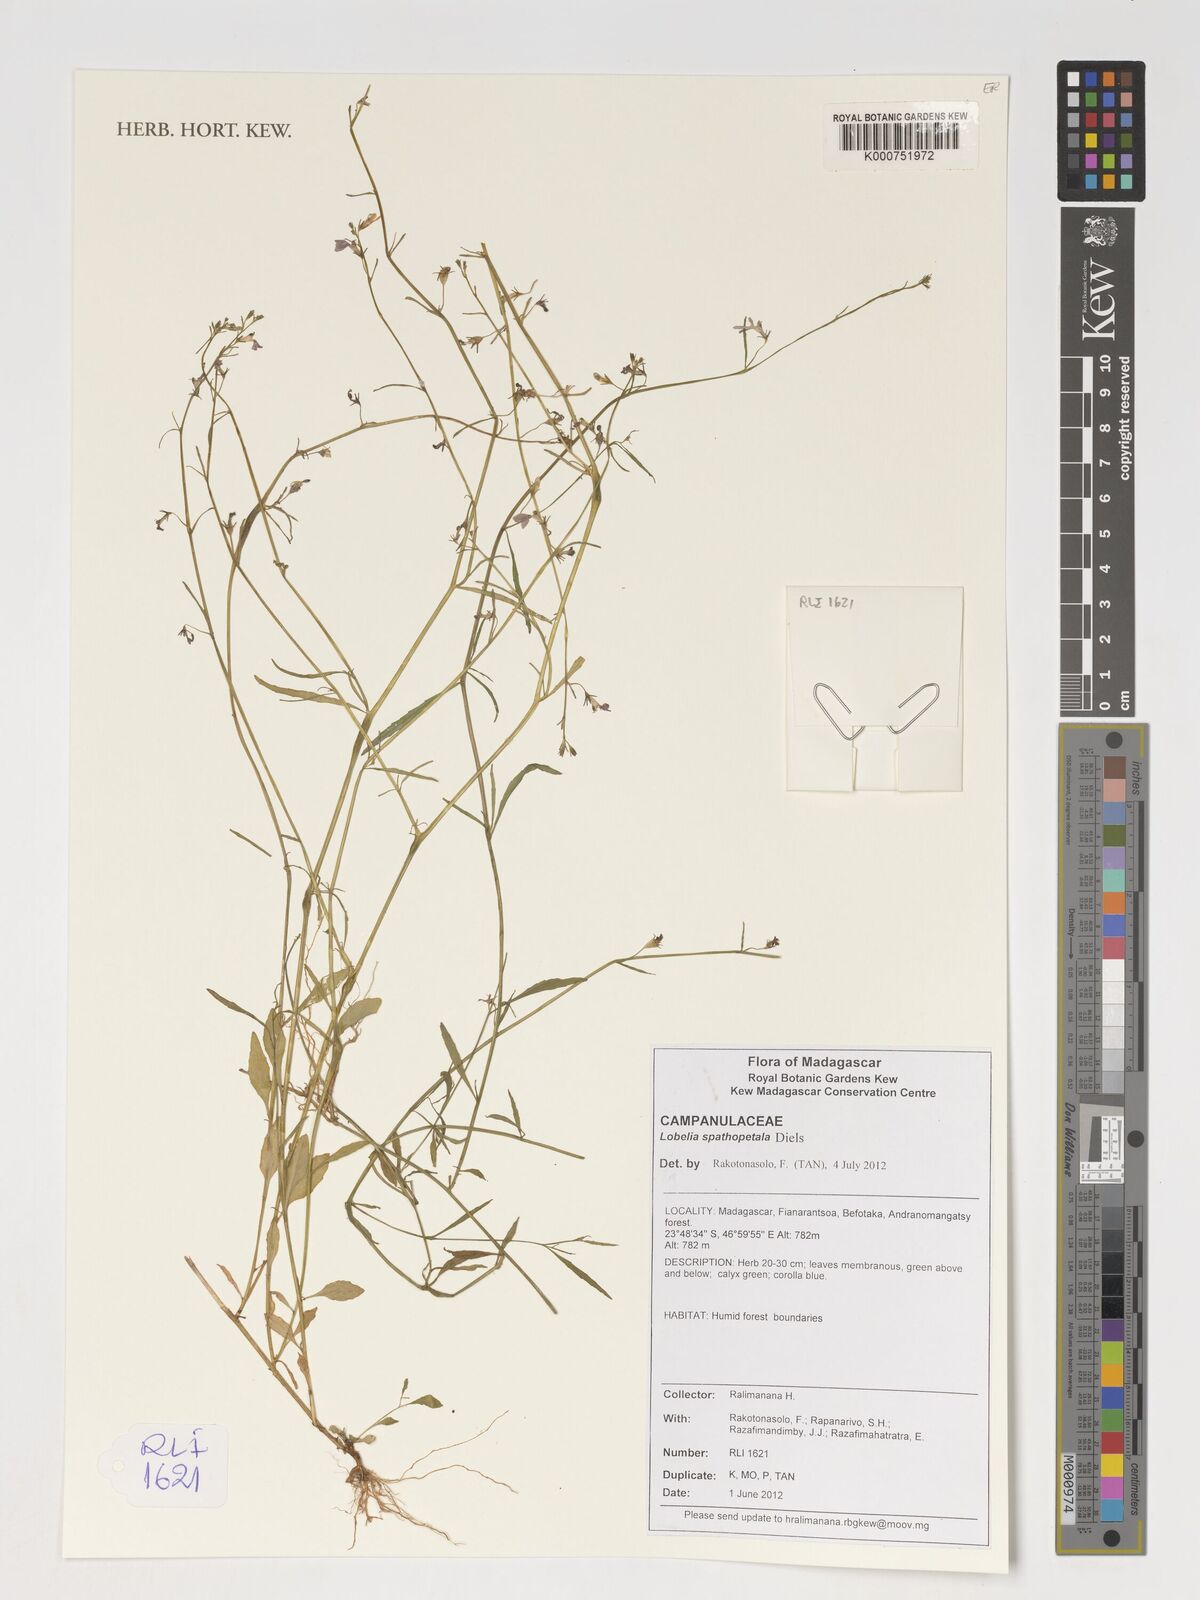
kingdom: Plantae
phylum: Tracheophyta
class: Magnoliopsida
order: Asterales
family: Campanulaceae
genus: Lobelia
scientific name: Lobelia spathopetala
